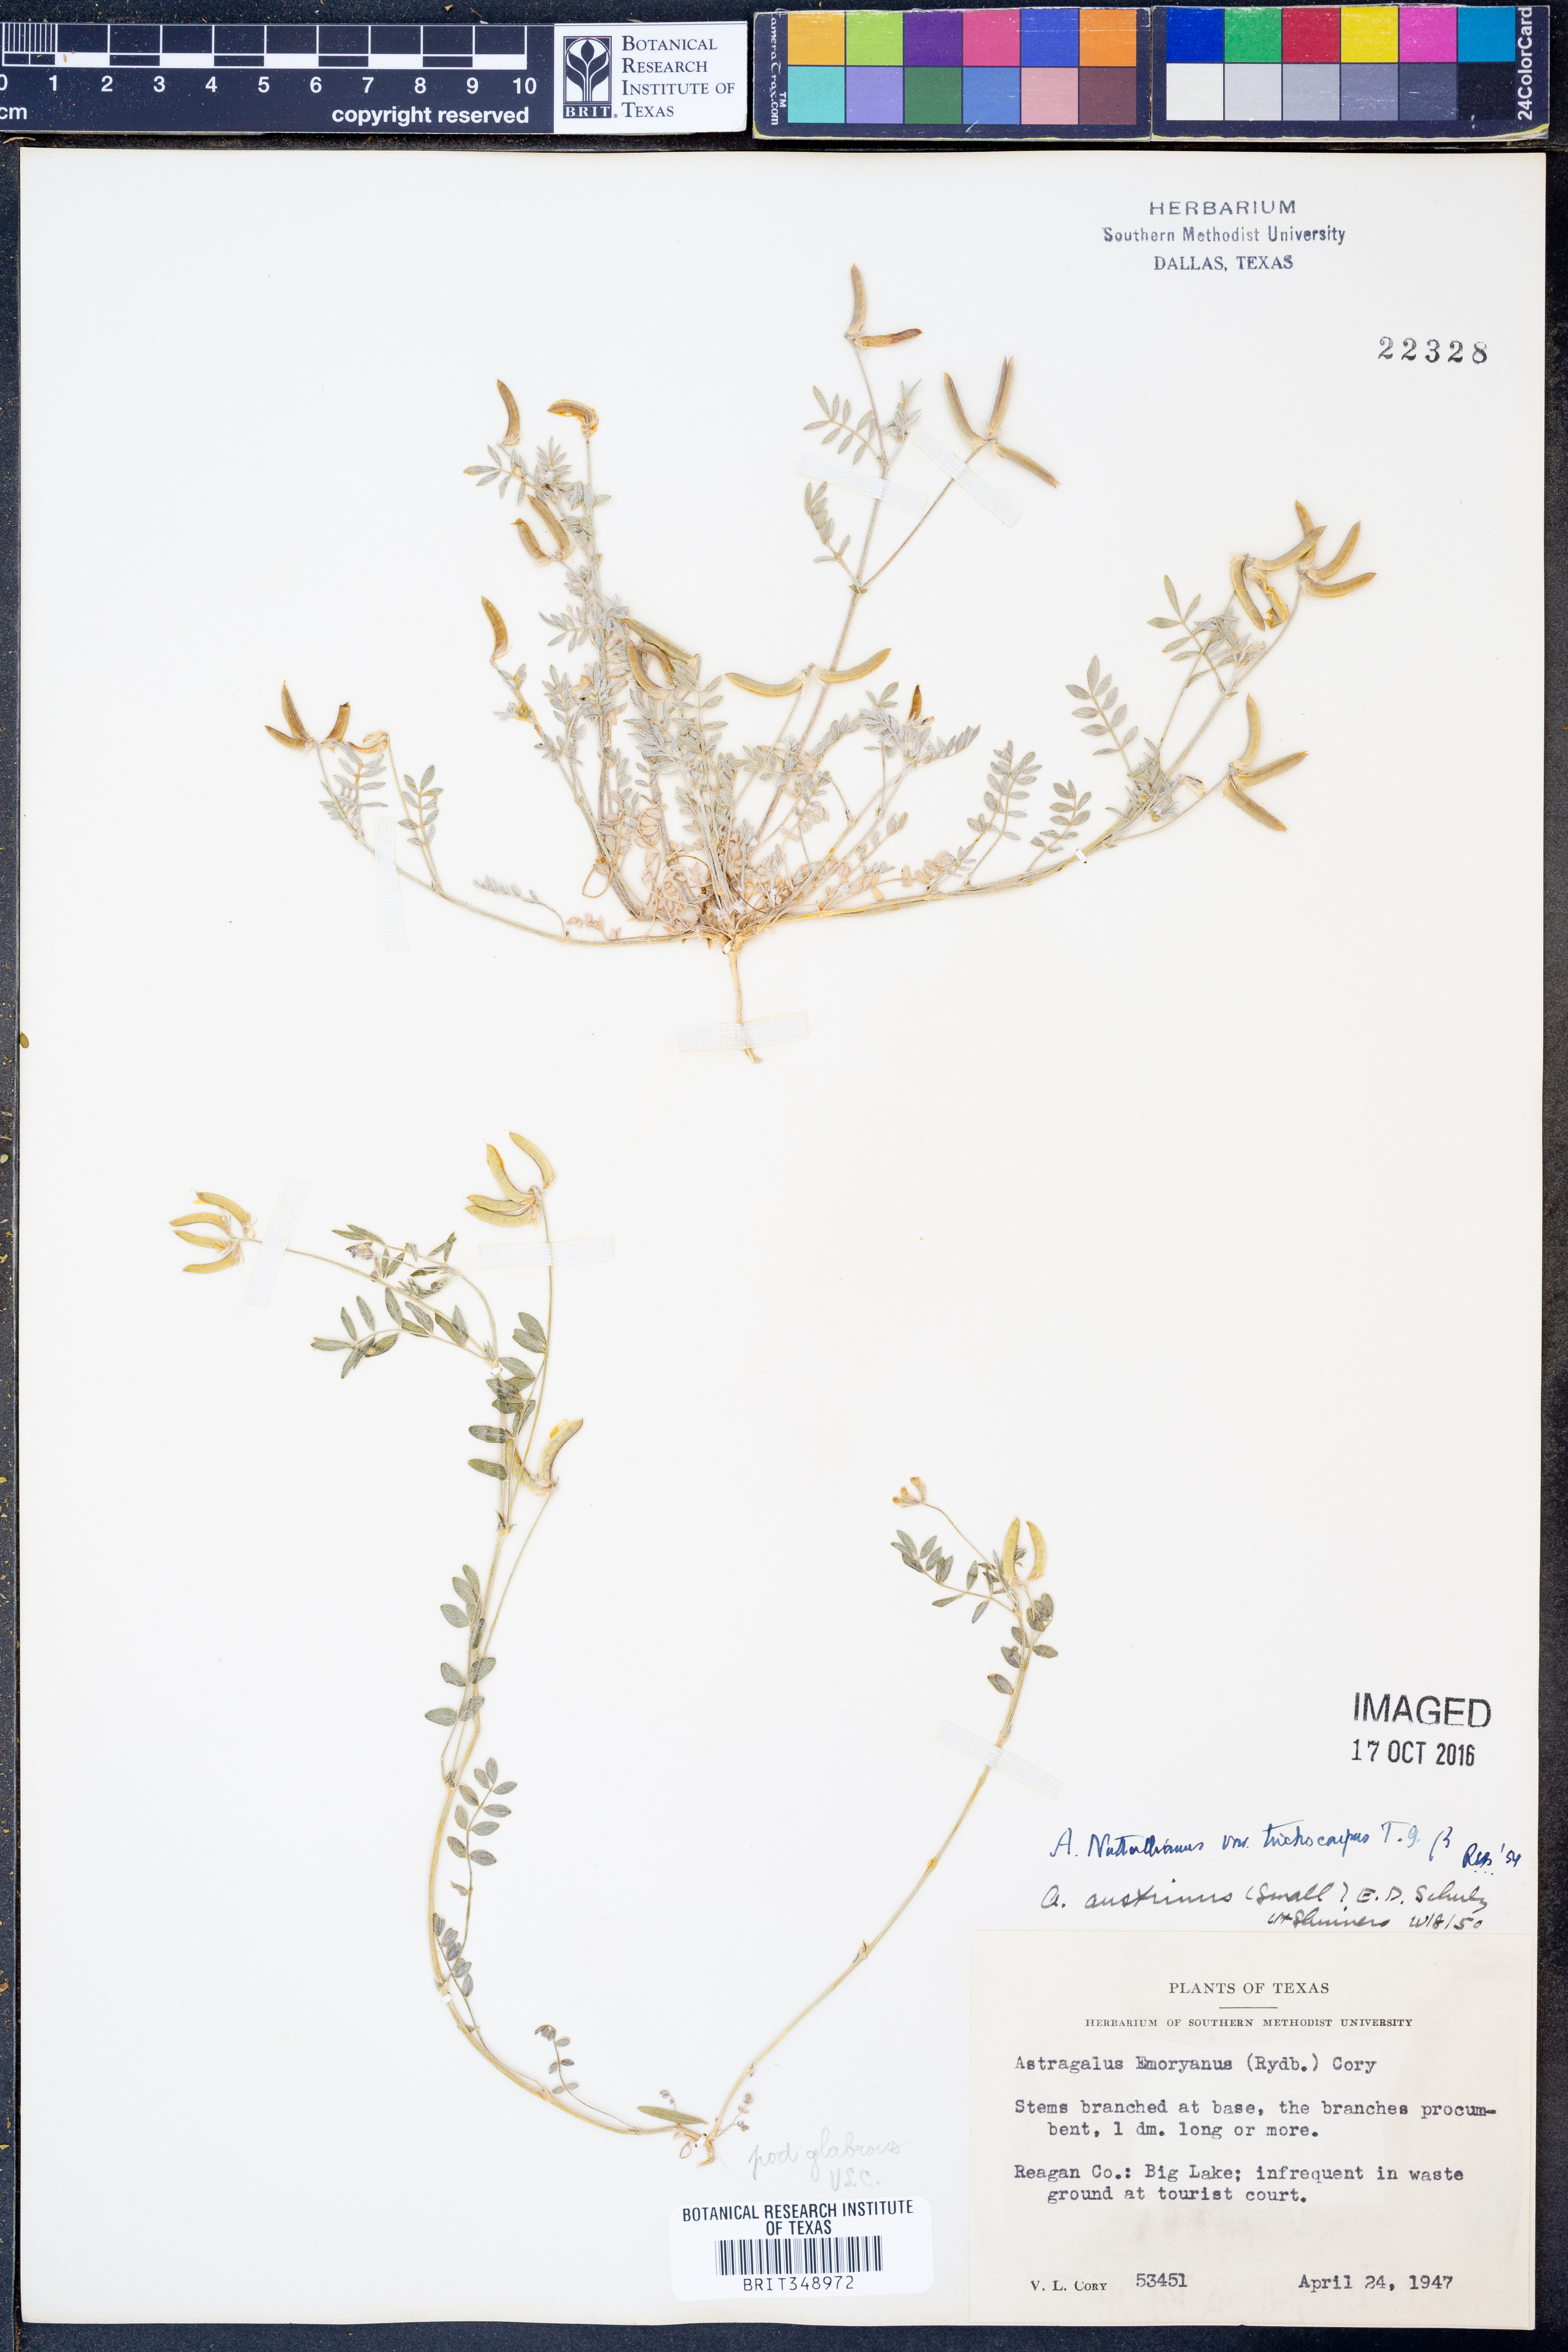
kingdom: Plantae
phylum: Tracheophyta
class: Magnoliopsida
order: Fabales
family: Fabaceae
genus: Astragalus
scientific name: Astragalus nuttallianus
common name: Smallflowered milkvetch
